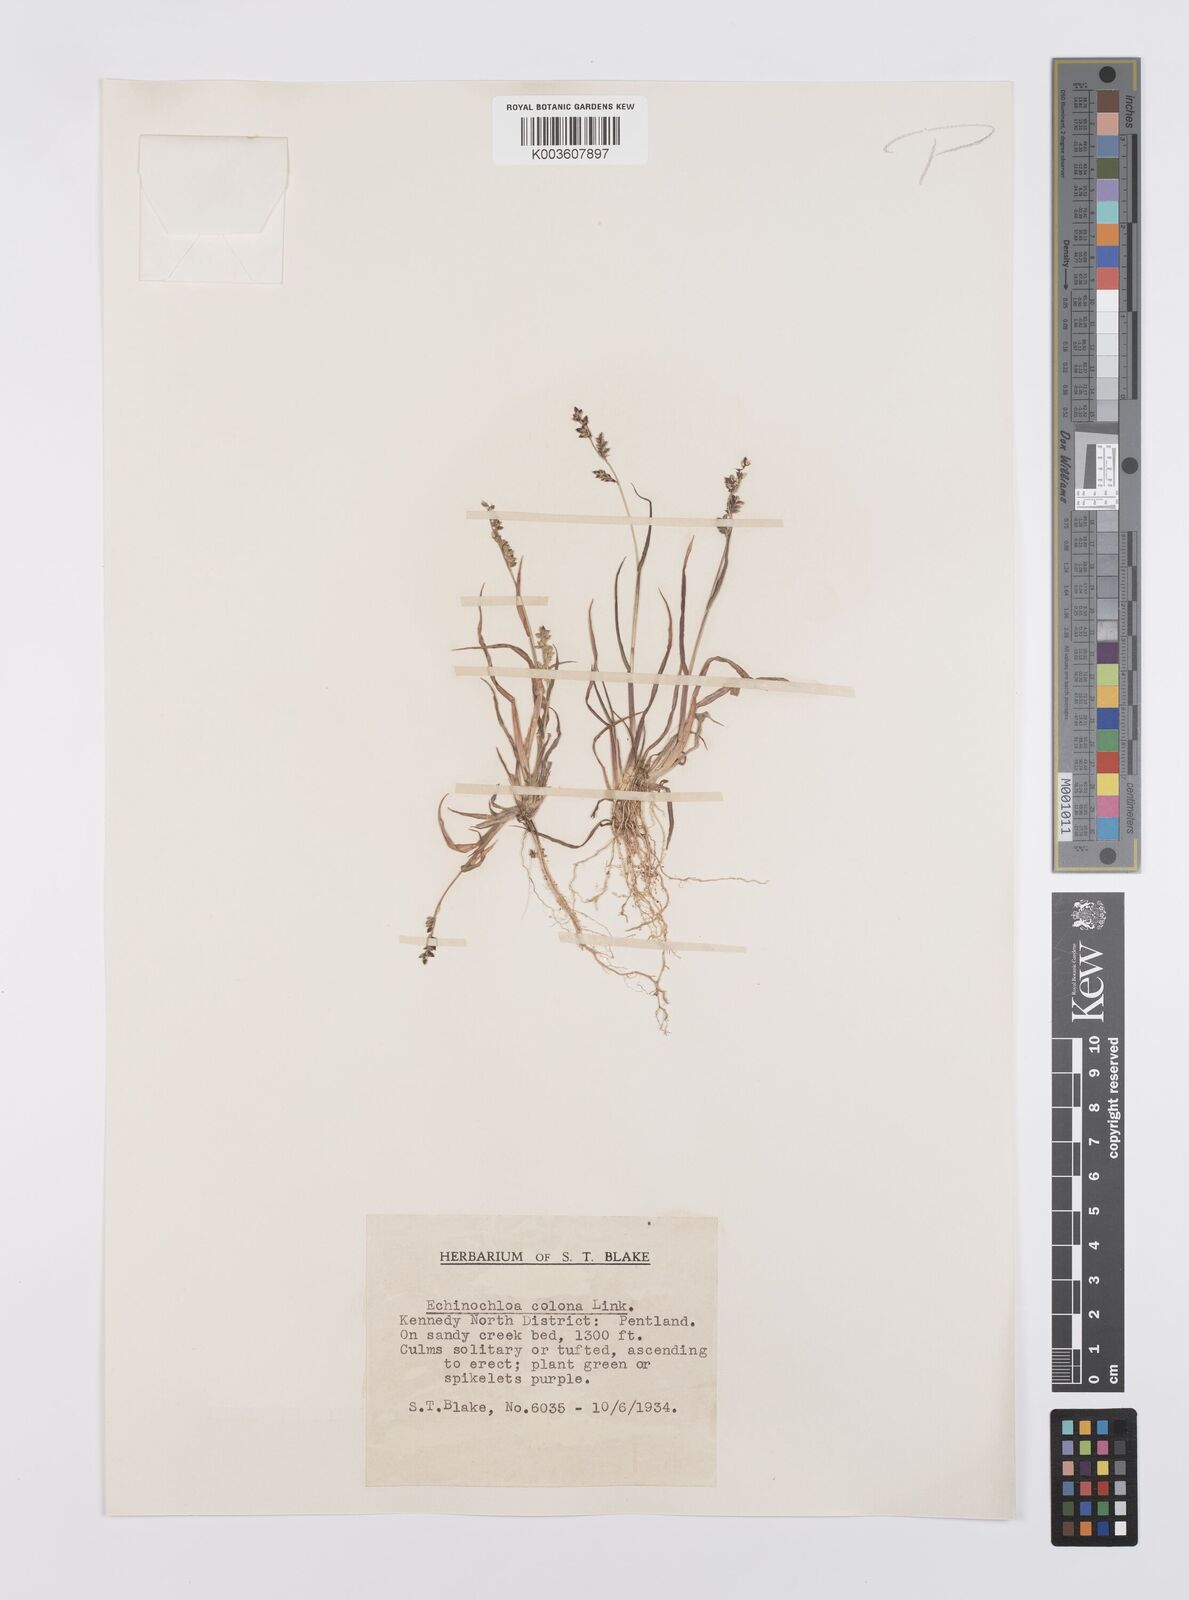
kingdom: Plantae
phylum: Tracheophyta
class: Liliopsida
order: Poales
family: Poaceae
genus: Echinochloa
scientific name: Echinochloa colonum
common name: Jungle rice
